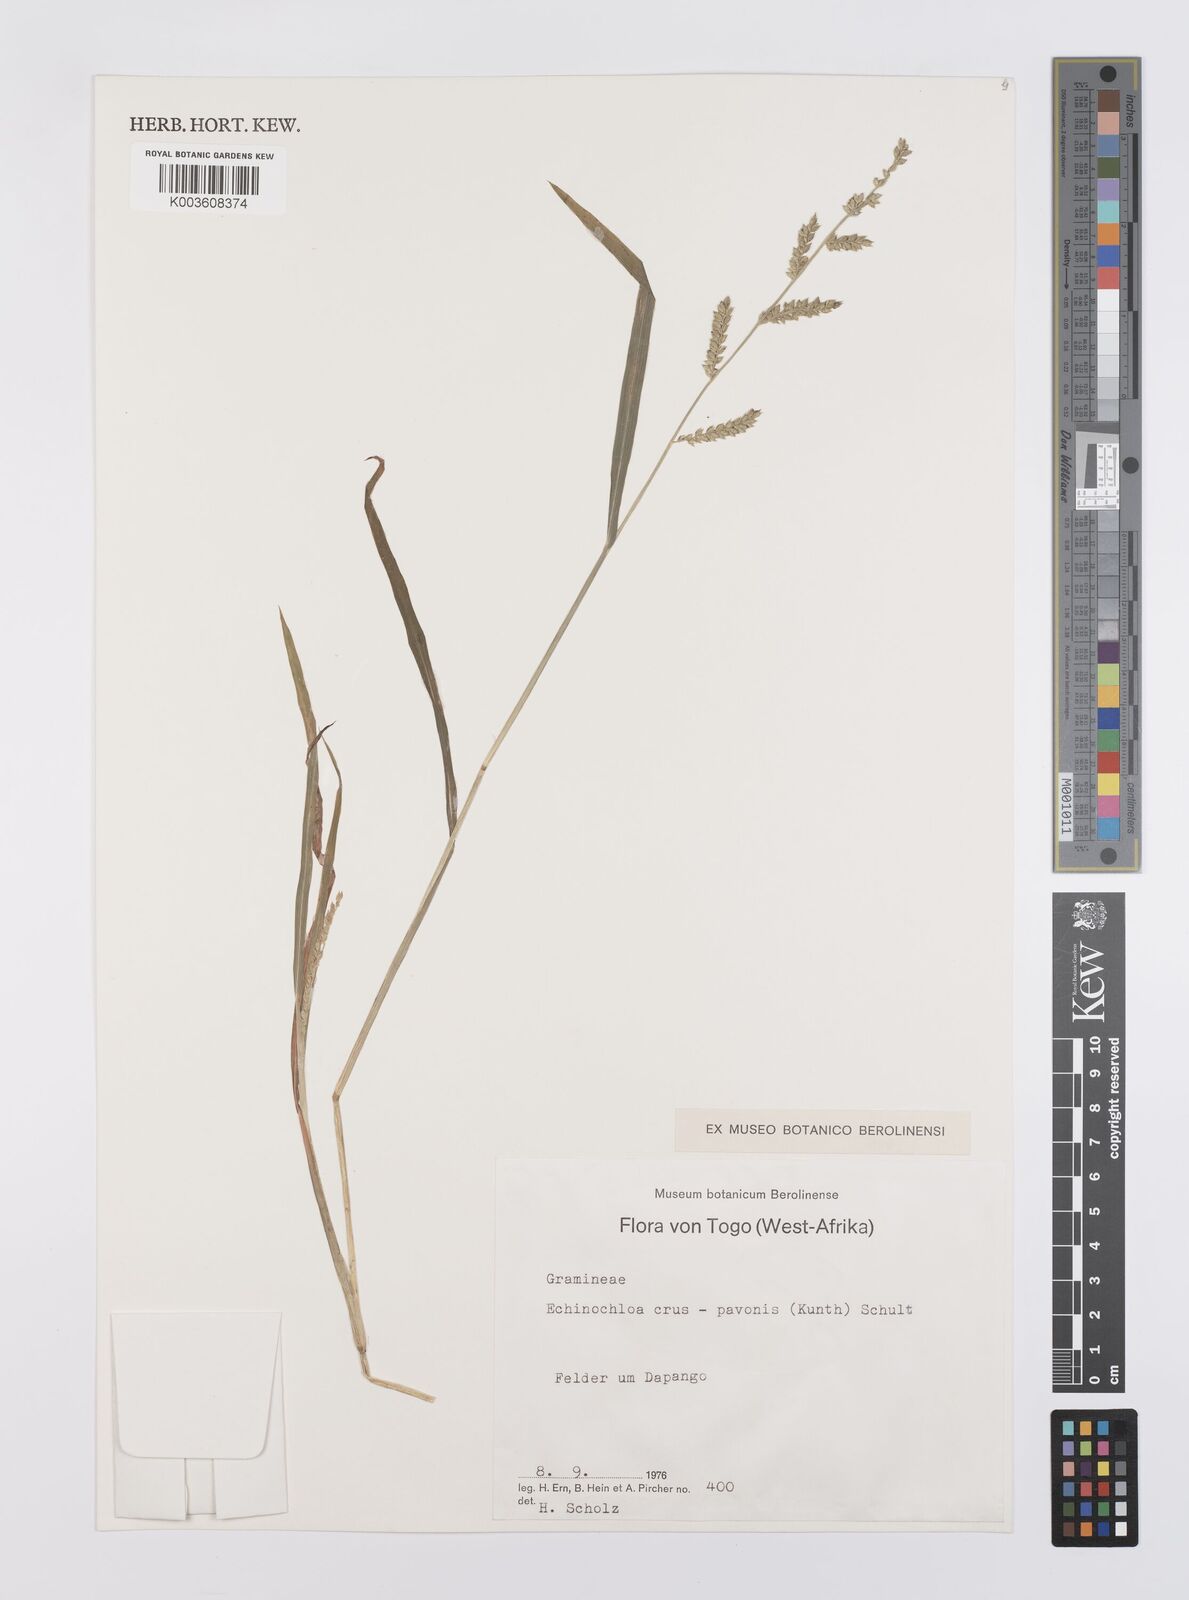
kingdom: Plantae
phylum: Tracheophyta
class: Liliopsida
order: Poales
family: Poaceae
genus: Echinochloa
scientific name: Echinochloa crus-pavonis
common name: Gulf cockspur grass
